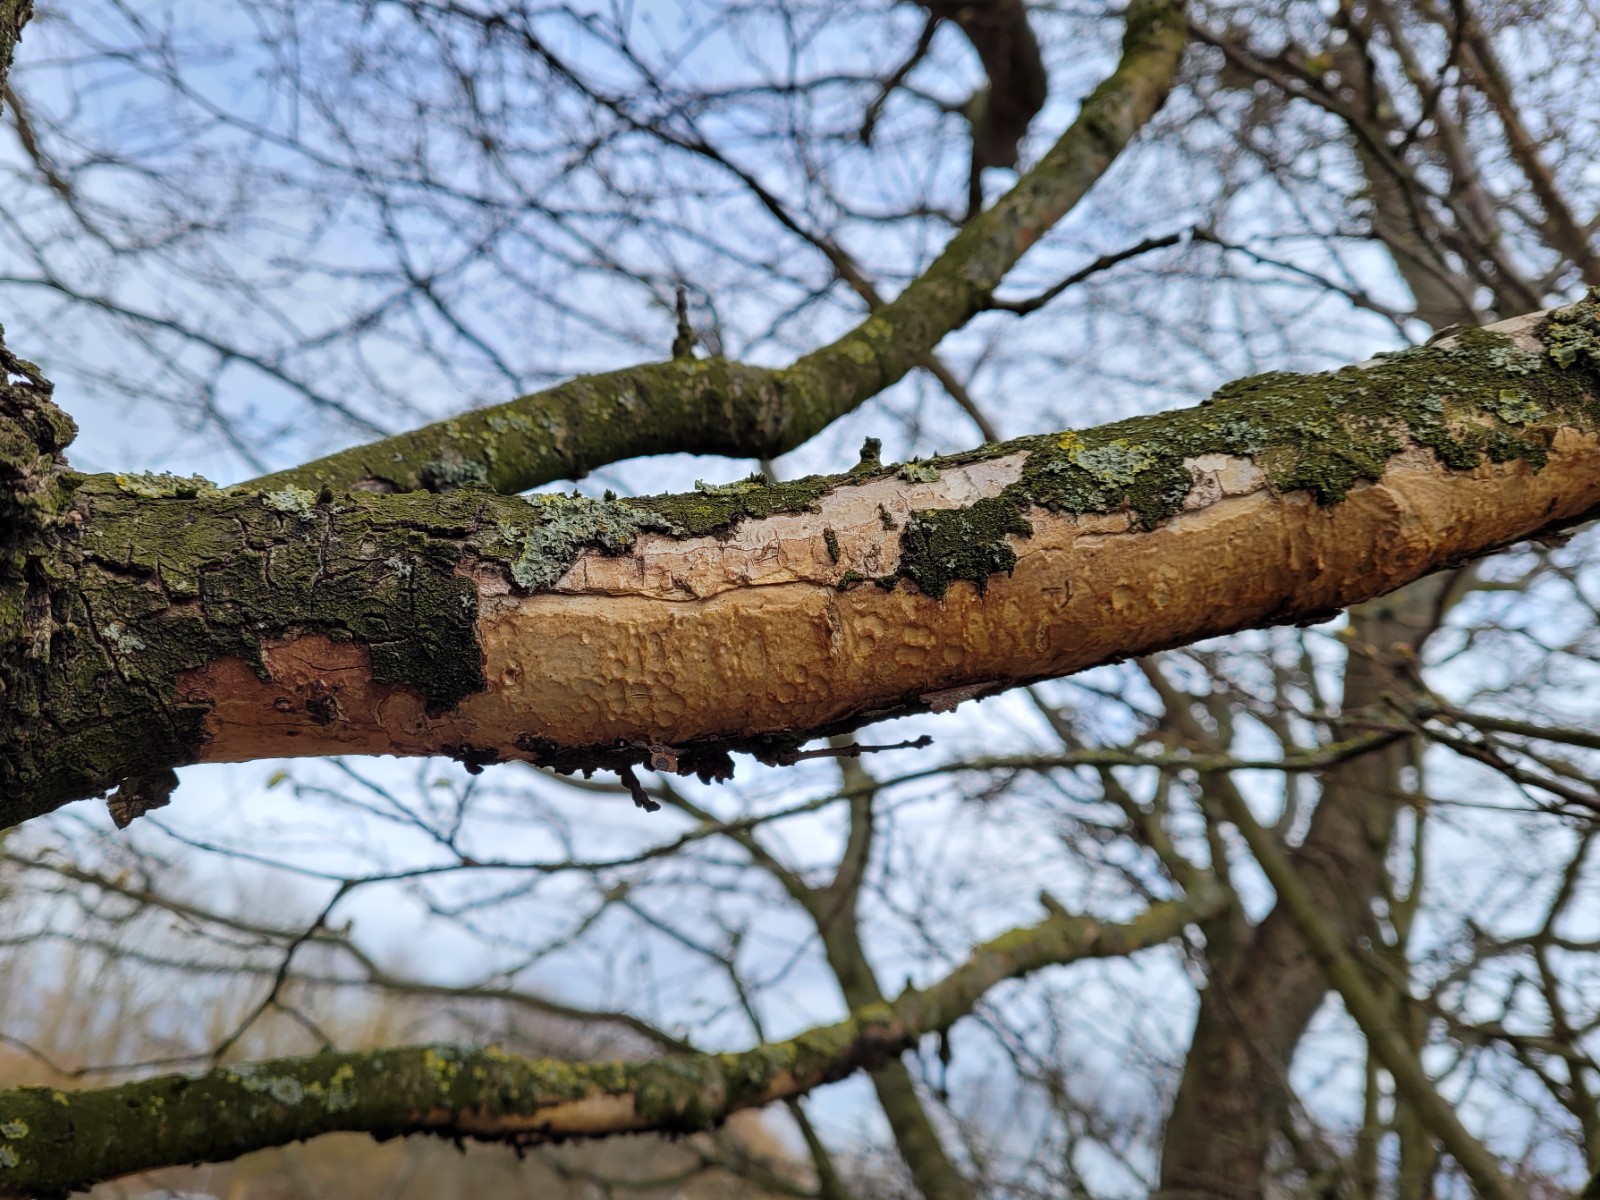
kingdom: Fungi
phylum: Basidiomycota
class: Agaricomycetes
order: Corticiales
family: Vuilleminiaceae
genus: Vuilleminia
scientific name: Vuilleminia comedens
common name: almindelig barksprænger
